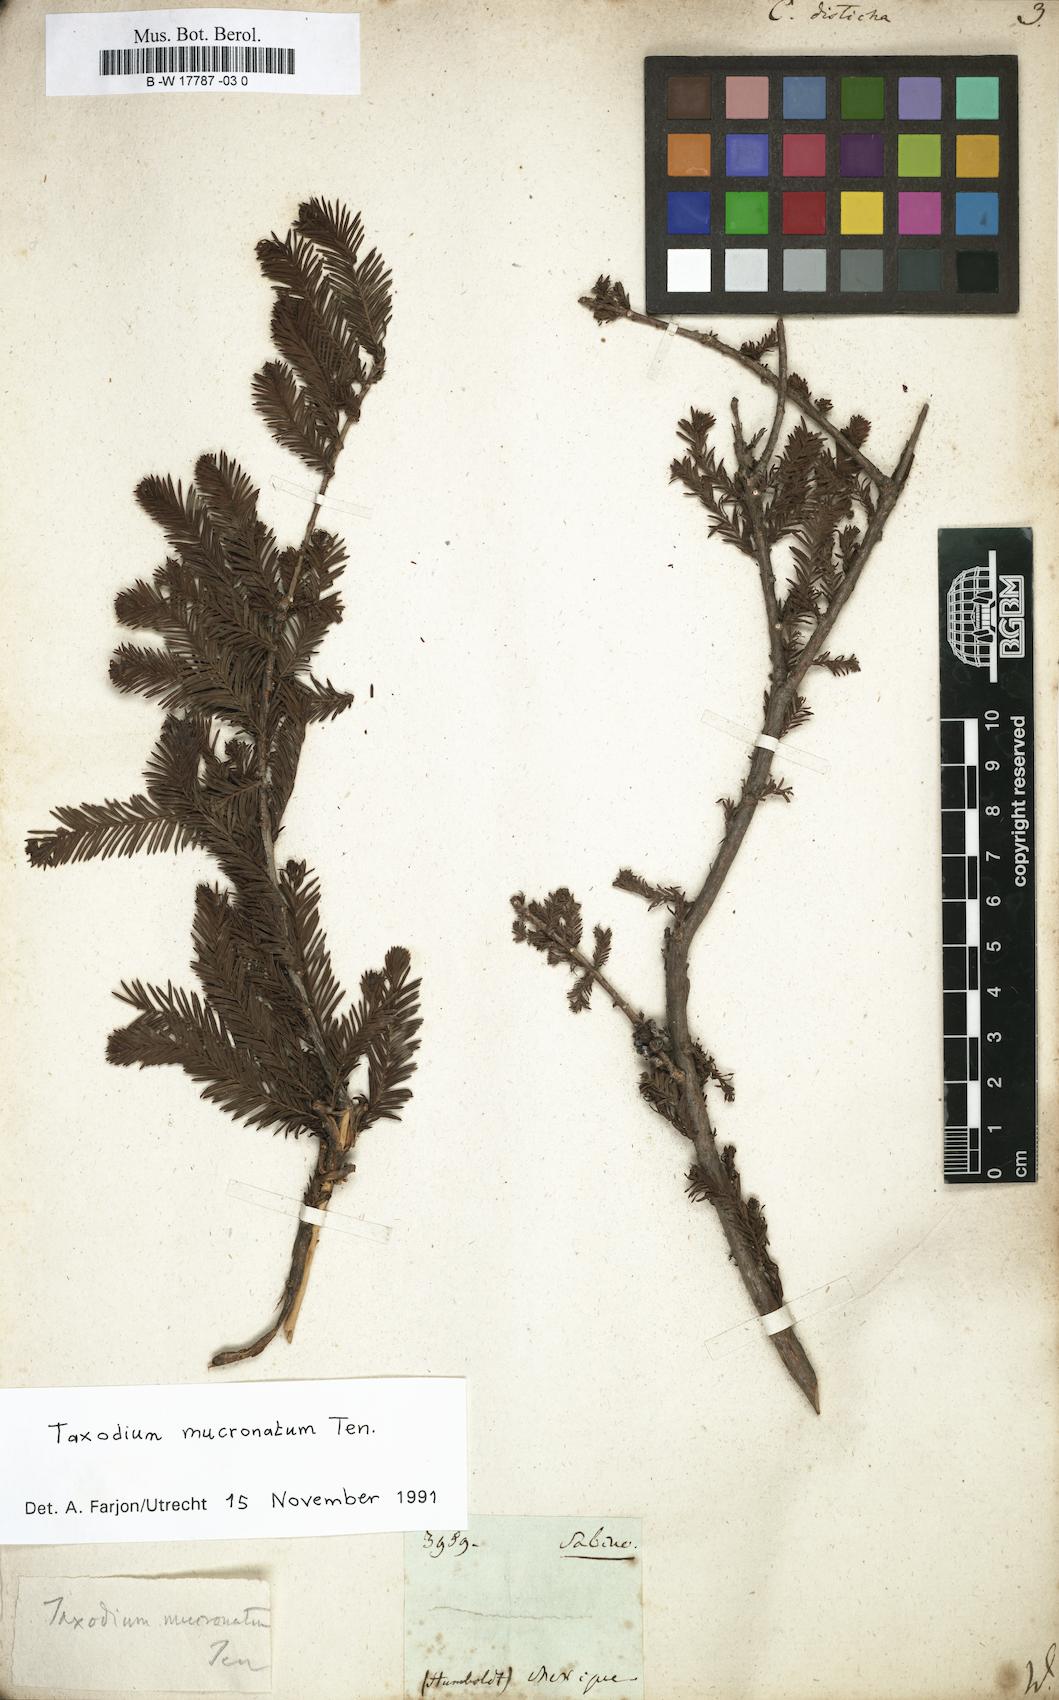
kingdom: Plantae
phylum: Tracheophyta
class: Pinopsida
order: Pinales
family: Cupressaceae
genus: Taxodium
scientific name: Taxodium distichum
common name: Bald cypress
